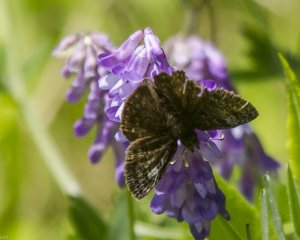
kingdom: Animalia
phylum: Arthropoda
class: Insecta
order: Lepidoptera
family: Hesperiidae
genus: Erynnis
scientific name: Erynnis icelus
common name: Dreamy Duskywing
